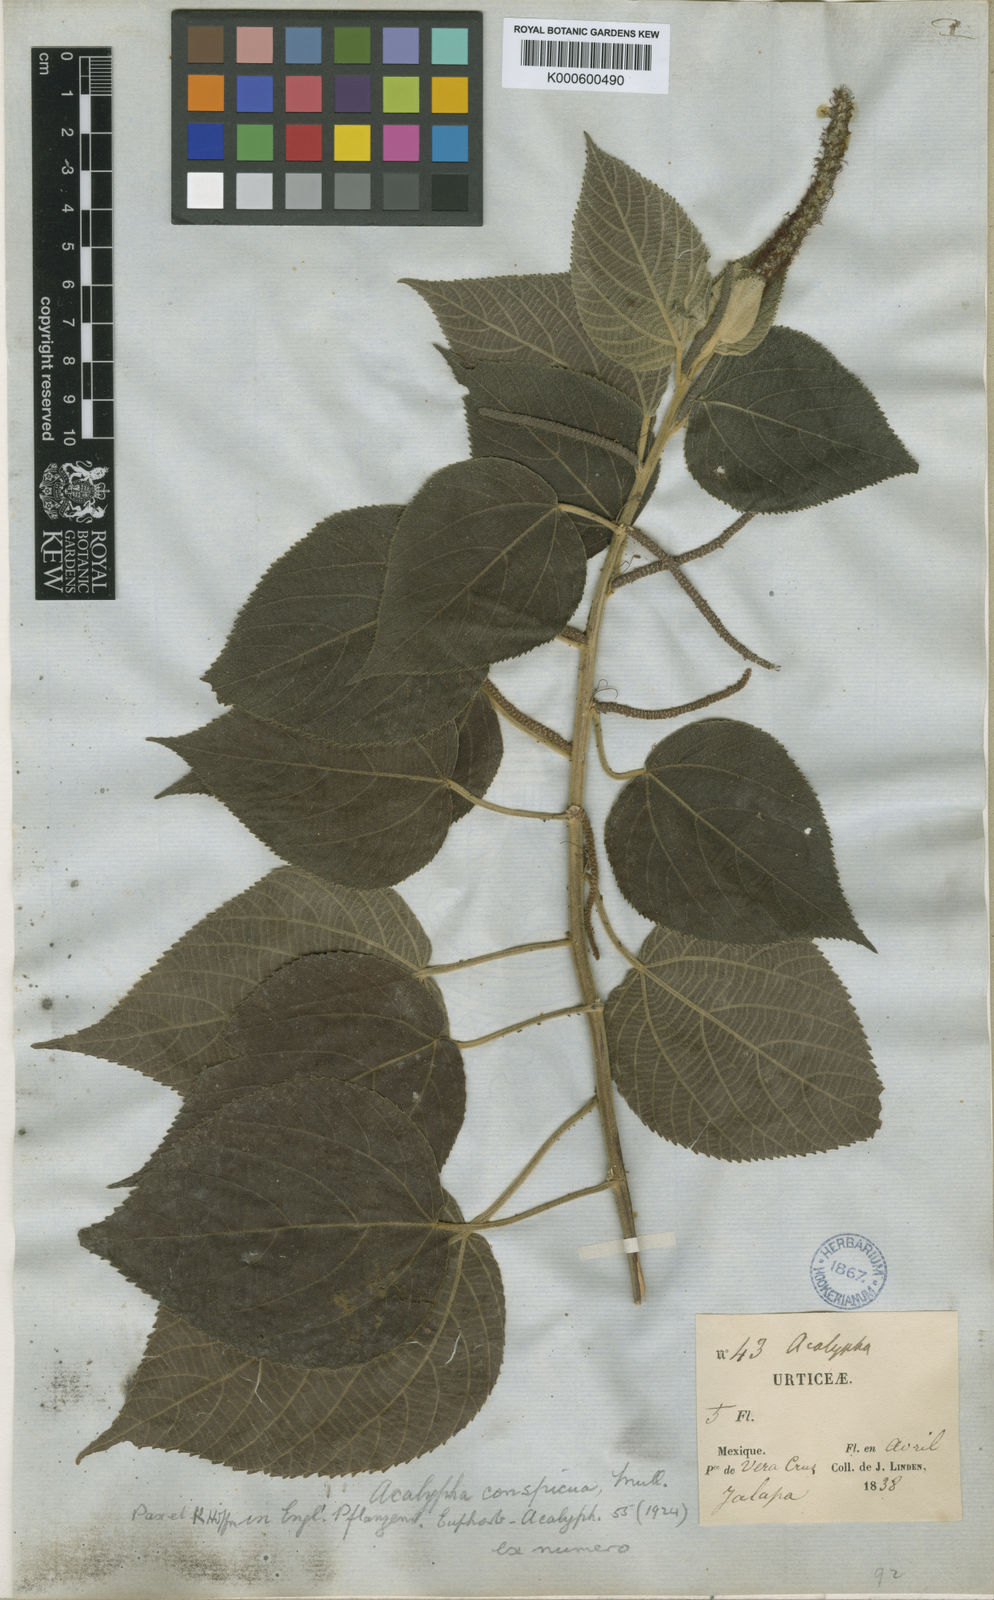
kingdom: Plantae
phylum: Tracheophyta
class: Magnoliopsida
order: Malpighiales
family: Euphorbiaceae
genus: Acalypha
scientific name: Acalypha
